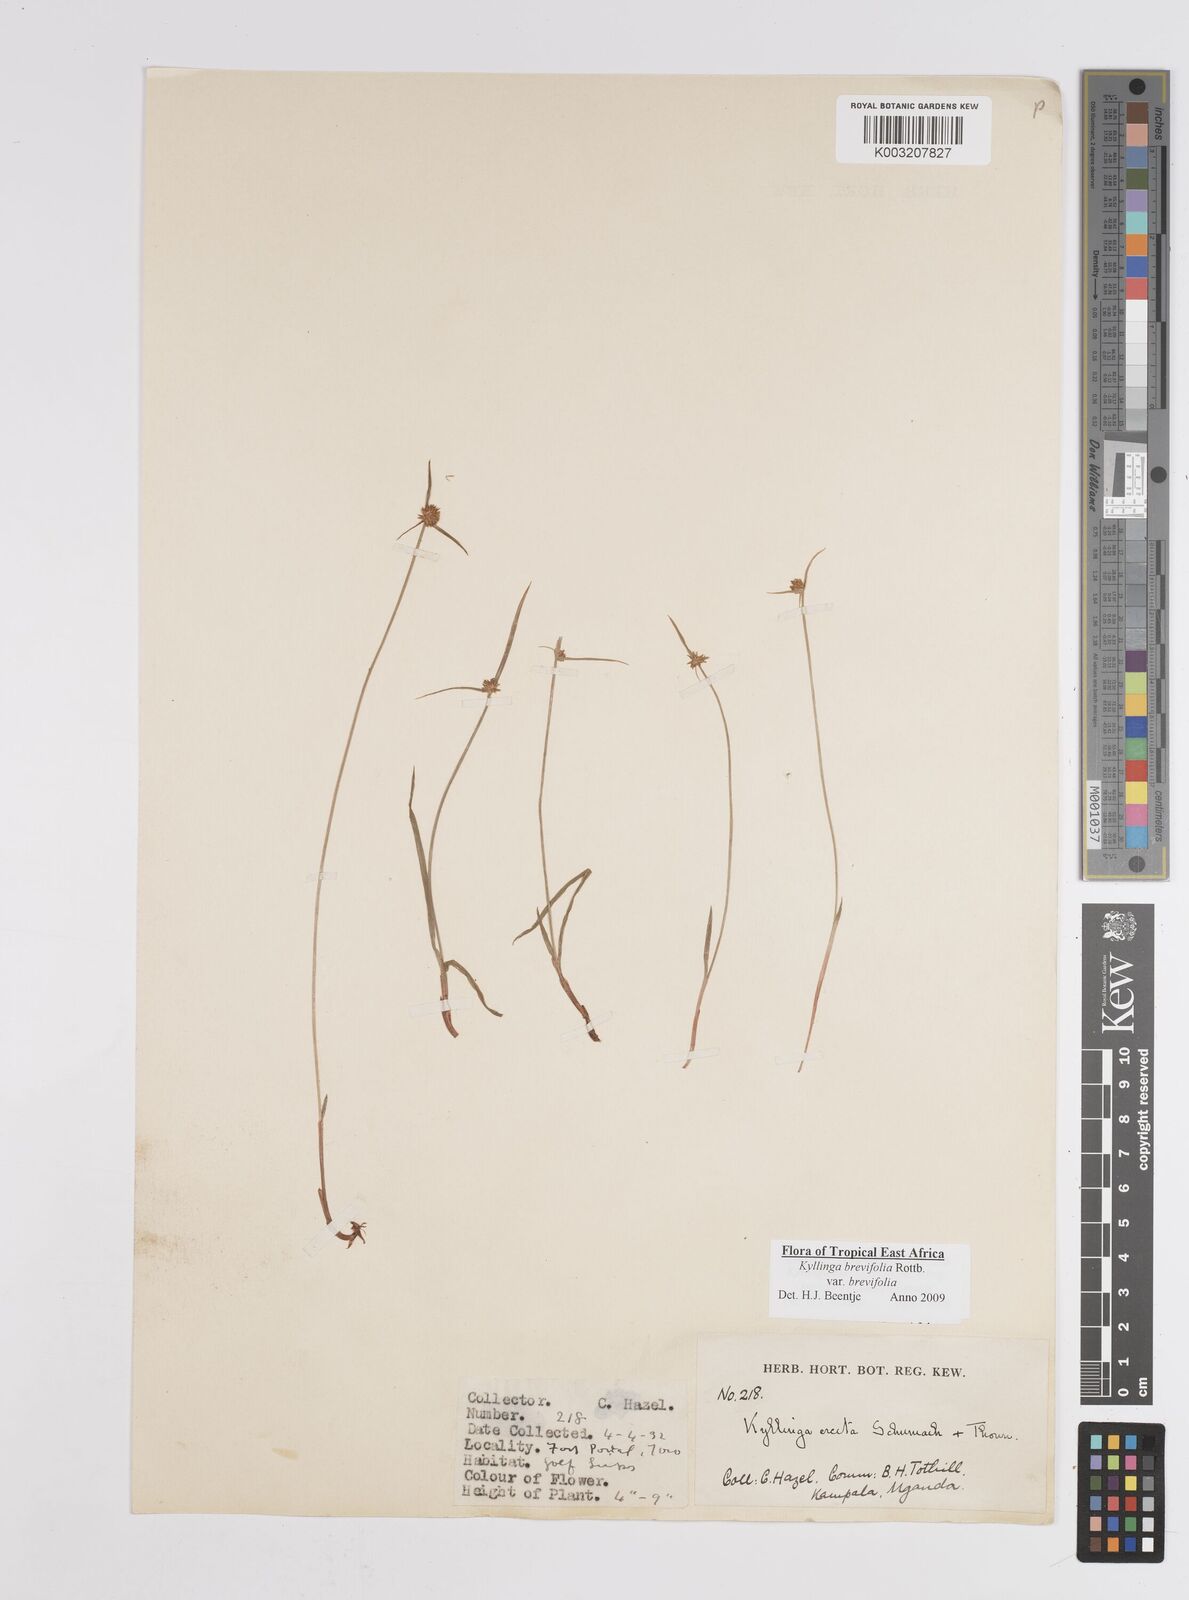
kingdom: Plantae
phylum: Tracheophyta
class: Liliopsida
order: Poales
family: Cyperaceae
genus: Cyperus
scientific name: Cyperus erectus
